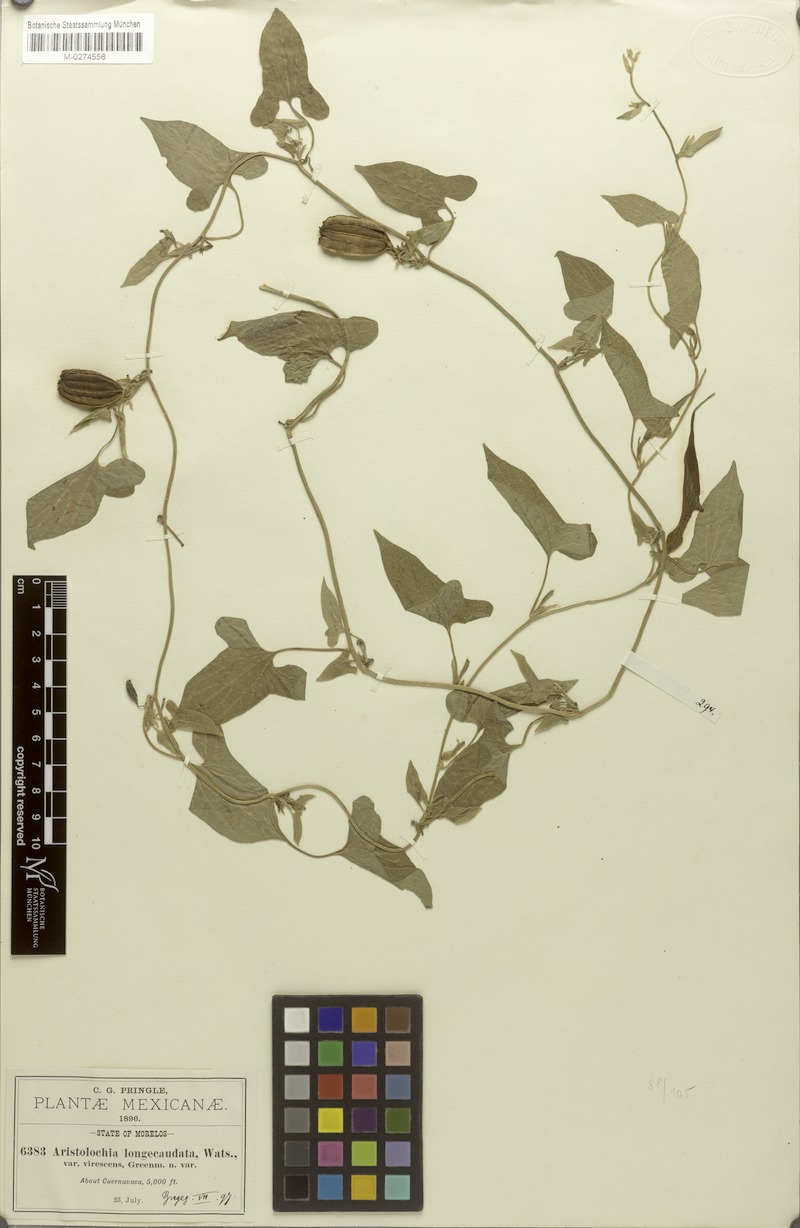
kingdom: Plantae
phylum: Tracheophyta
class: Magnoliopsida
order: Piperales
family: Aristolochiaceae
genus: Aristolochia
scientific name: Aristolochia pringlei
